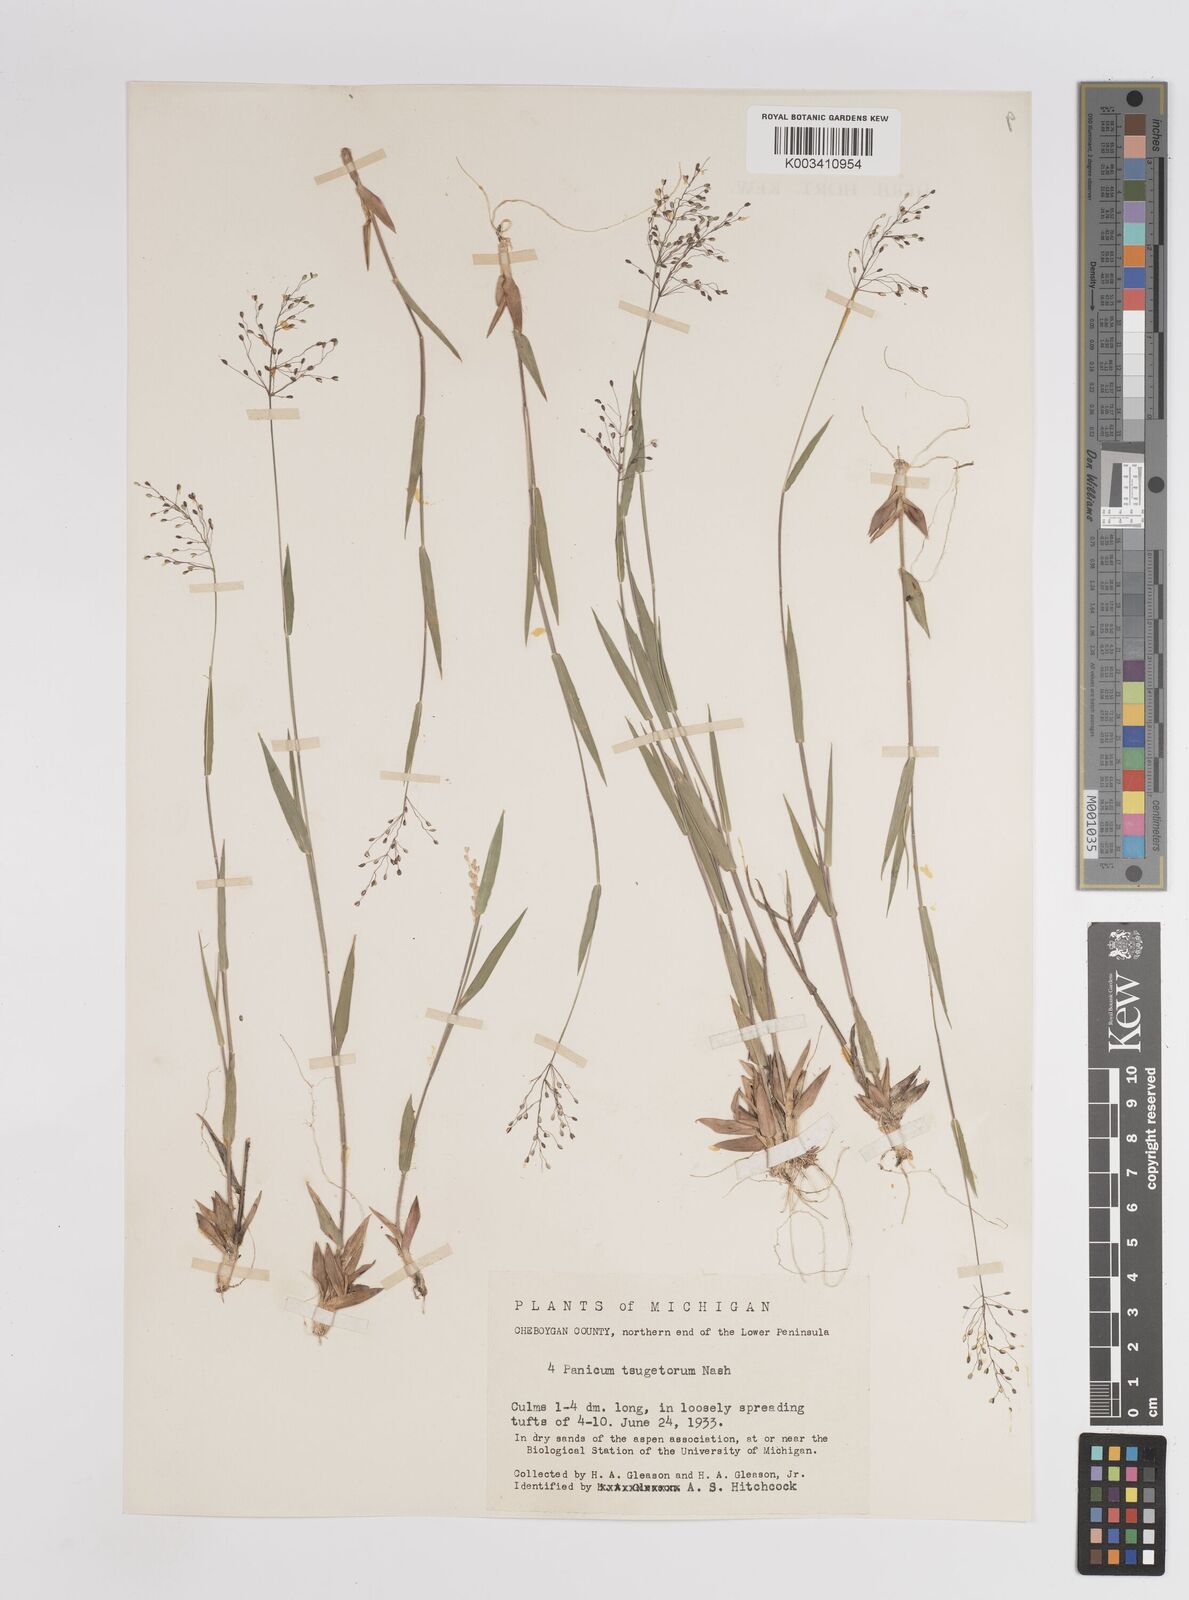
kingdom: Plantae
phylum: Tracheophyta
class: Liliopsida
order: Poales
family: Poaceae
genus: Dichanthelium
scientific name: Dichanthelium columbianum
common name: Hemlock panic grass
